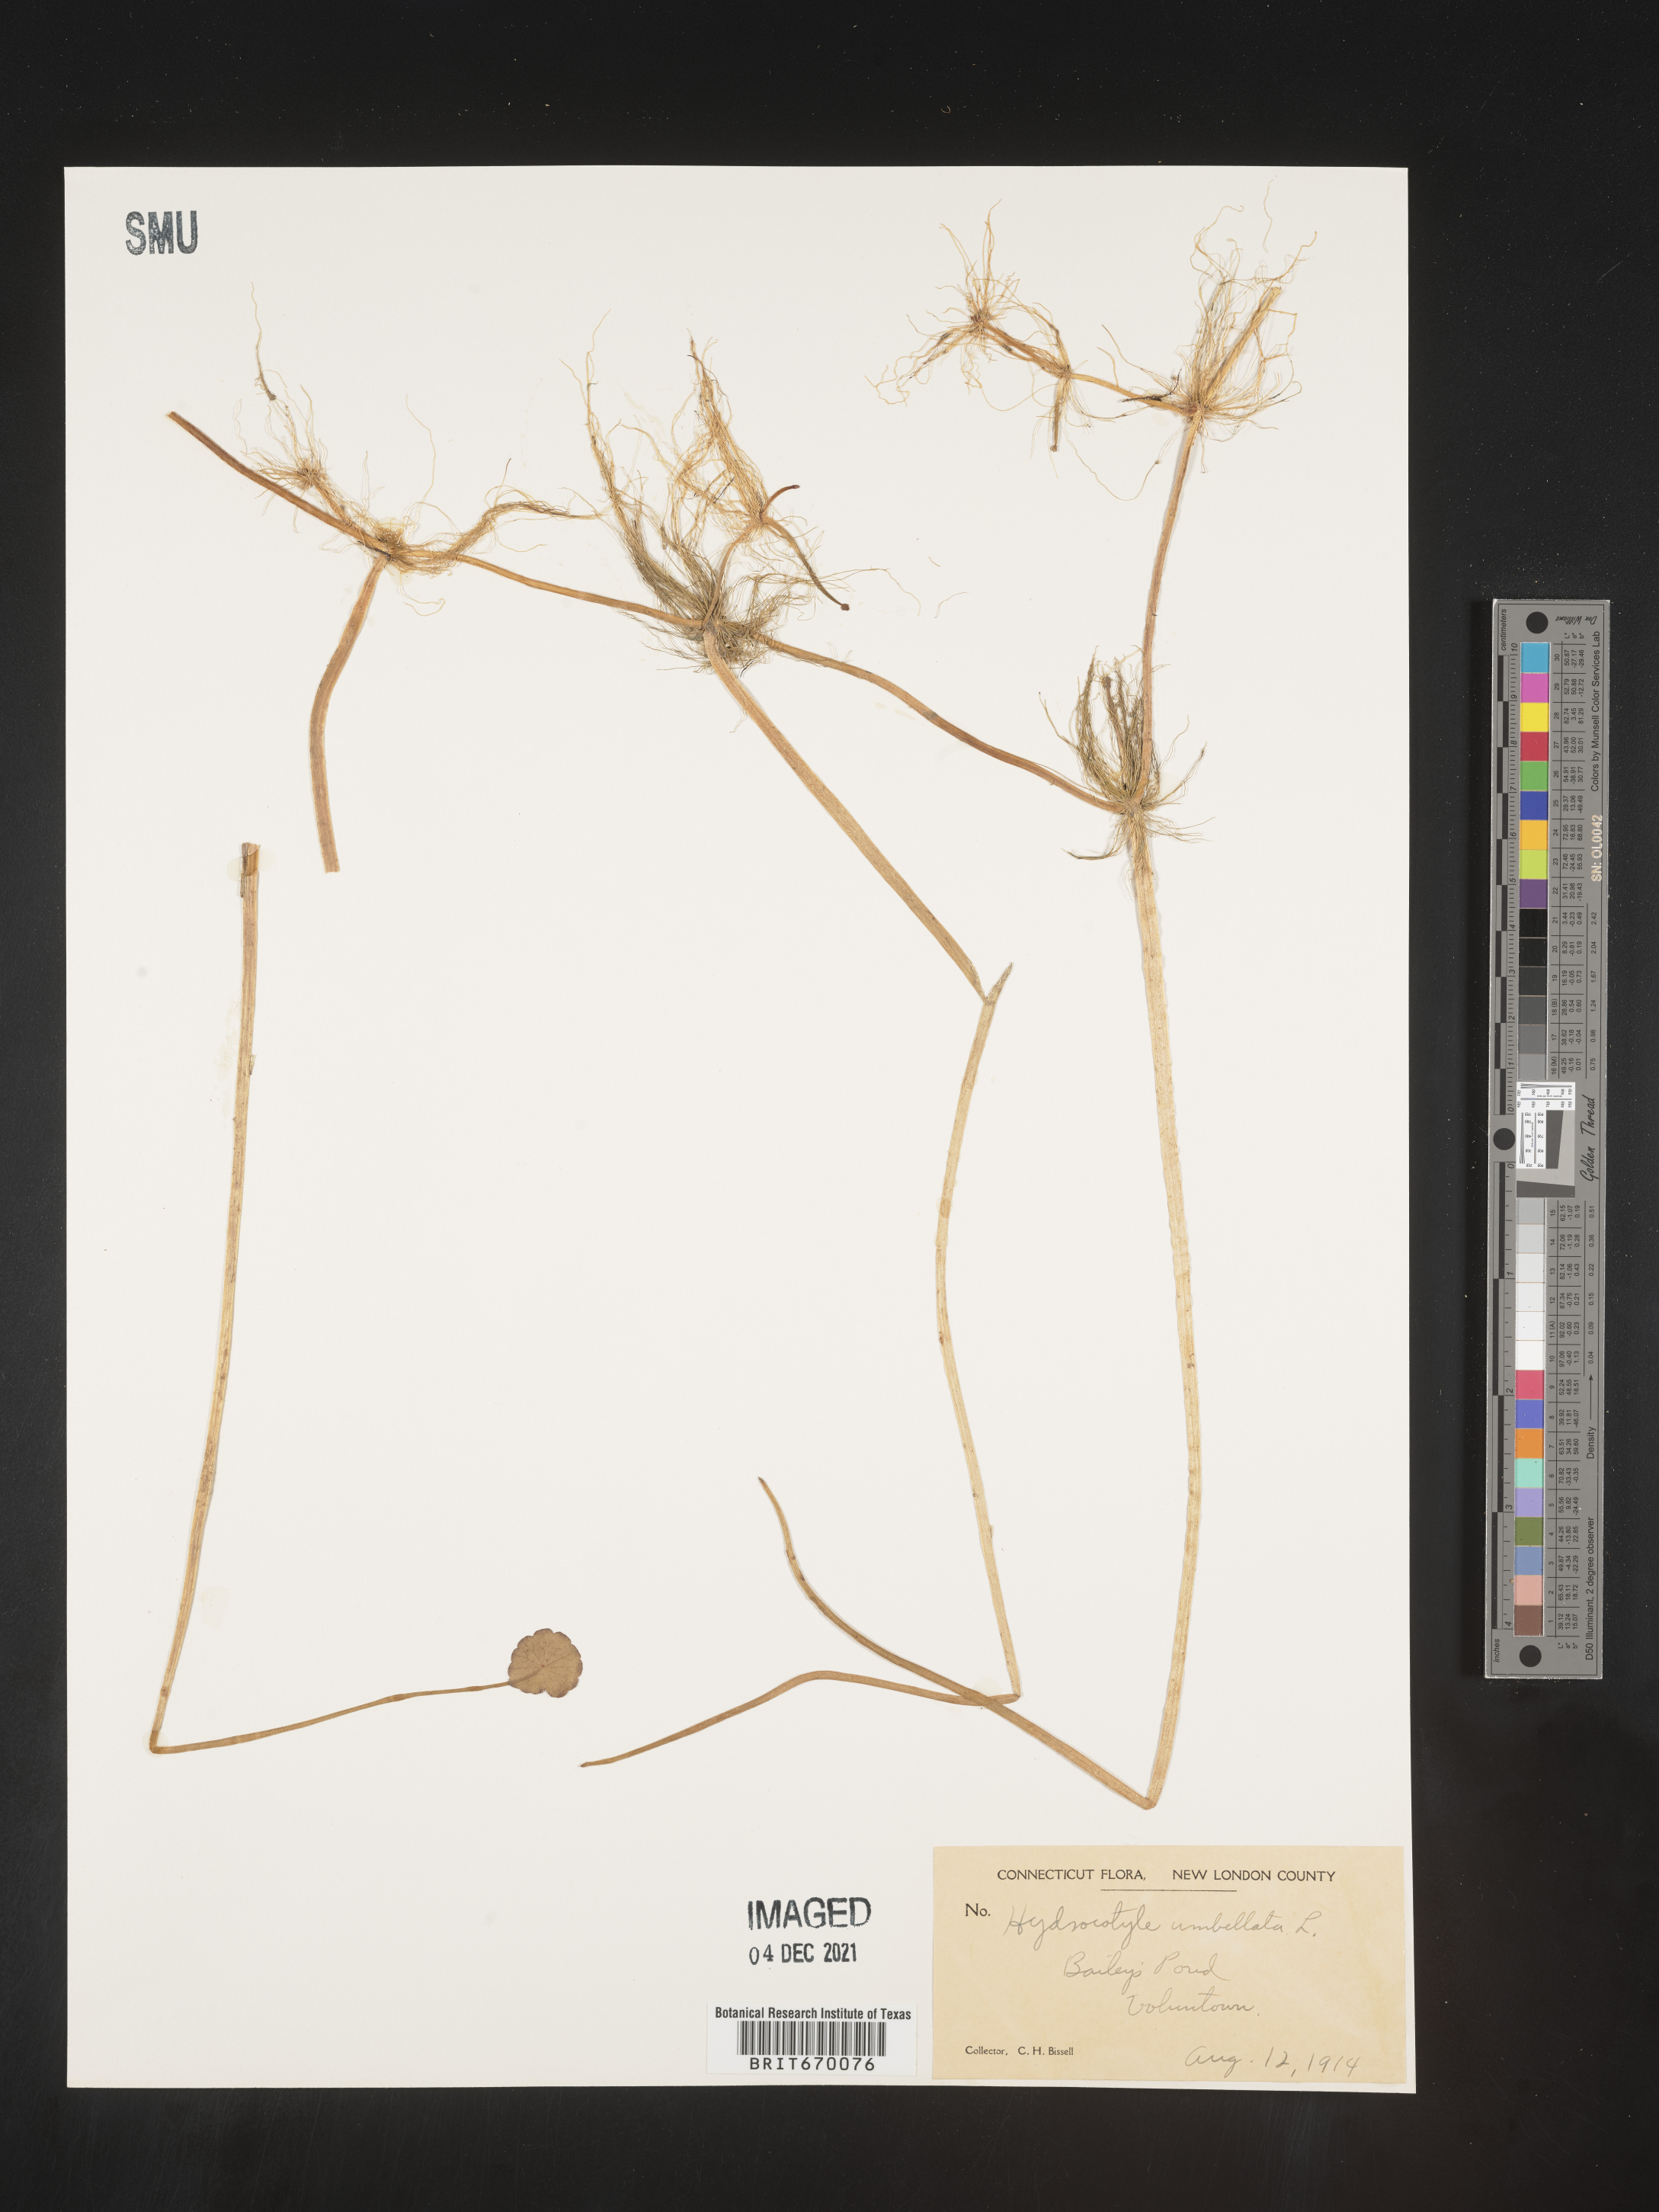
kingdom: Plantae
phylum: Tracheophyta
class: Magnoliopsida
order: Apiales
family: Araliaceae
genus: Hydrocotyle
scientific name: Hydrocotyle umbellata
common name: Water pennywort
